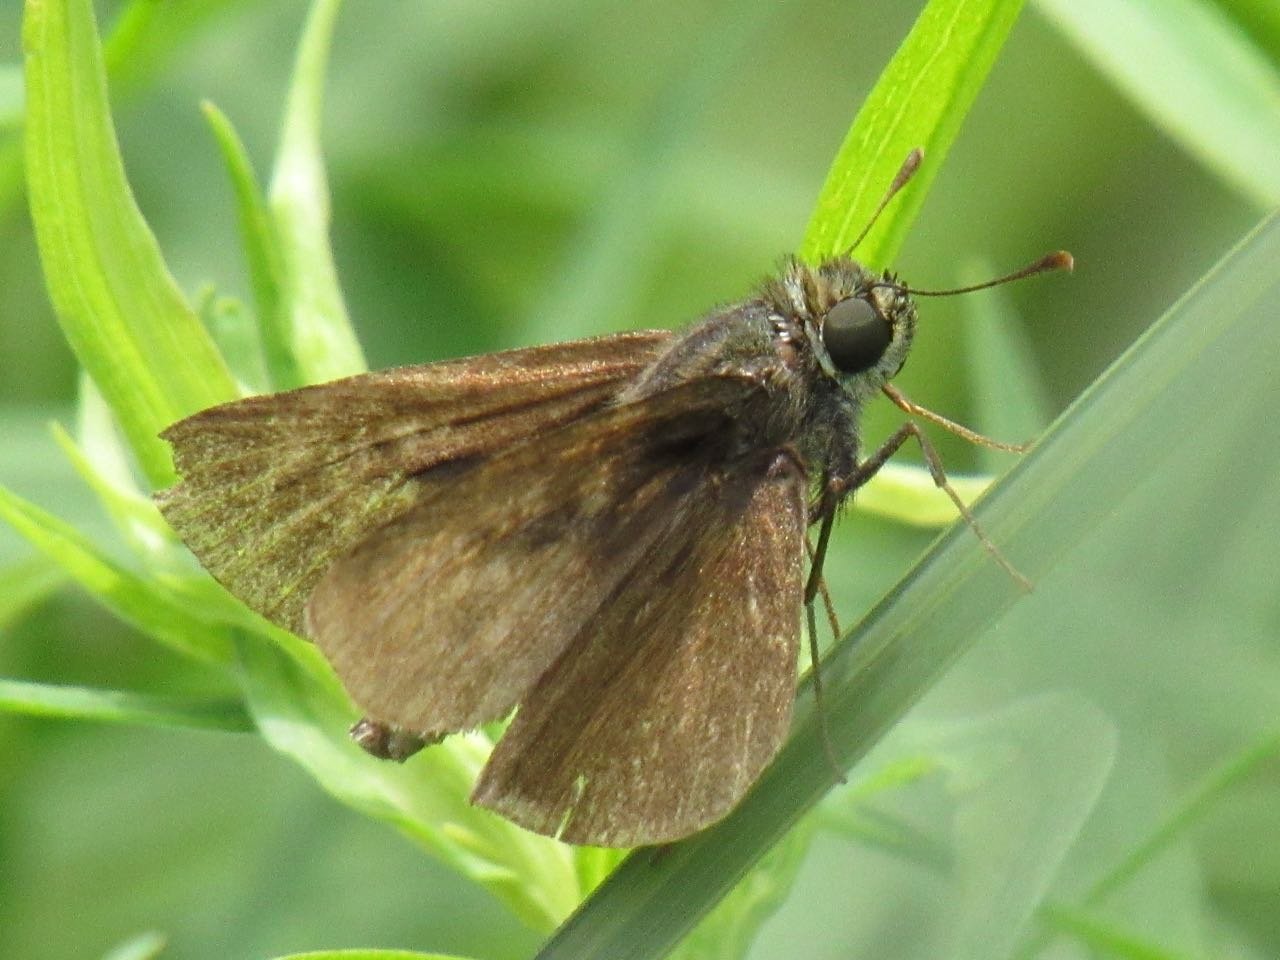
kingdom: Animalia
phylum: Arthropoda
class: Insecta
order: Lepidoptera
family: Hesperiidae
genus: Euphyes
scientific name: Euphyes vestris
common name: Dun Skipper
